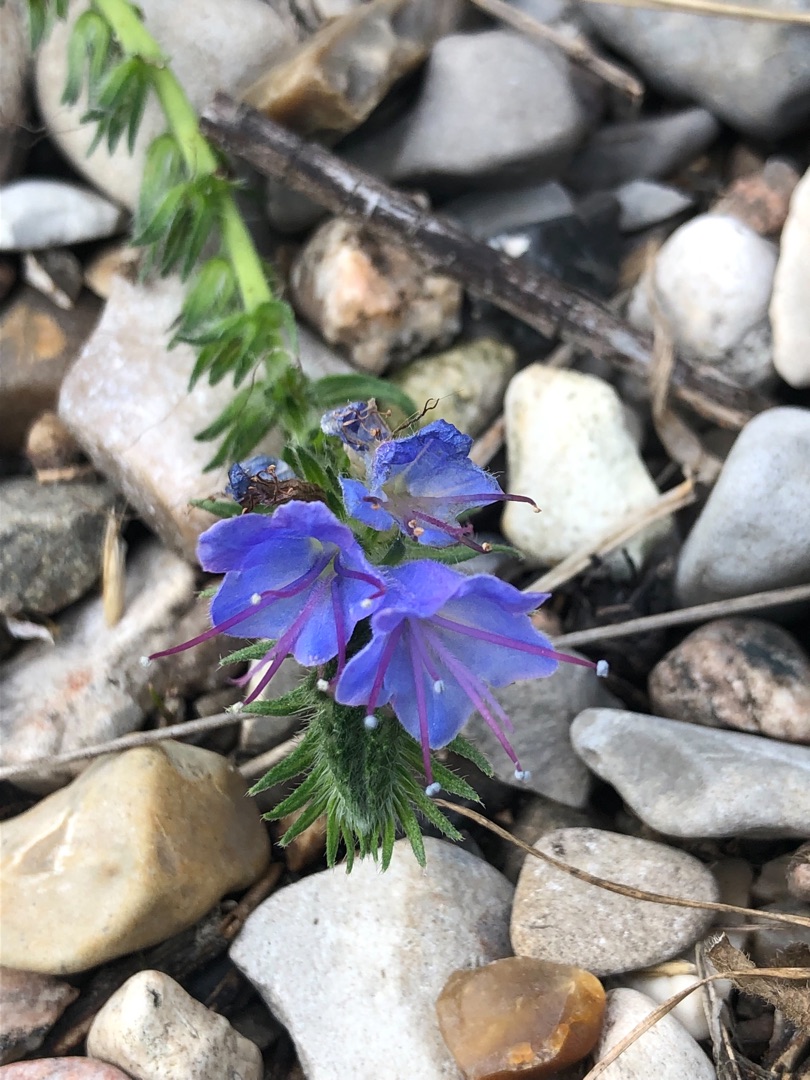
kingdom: Plantae
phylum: Tracheophyta
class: Magnoliopsida
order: Boraginales
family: Boraginaceae
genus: Echium
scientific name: Echium vulgare
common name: Slangehoved
